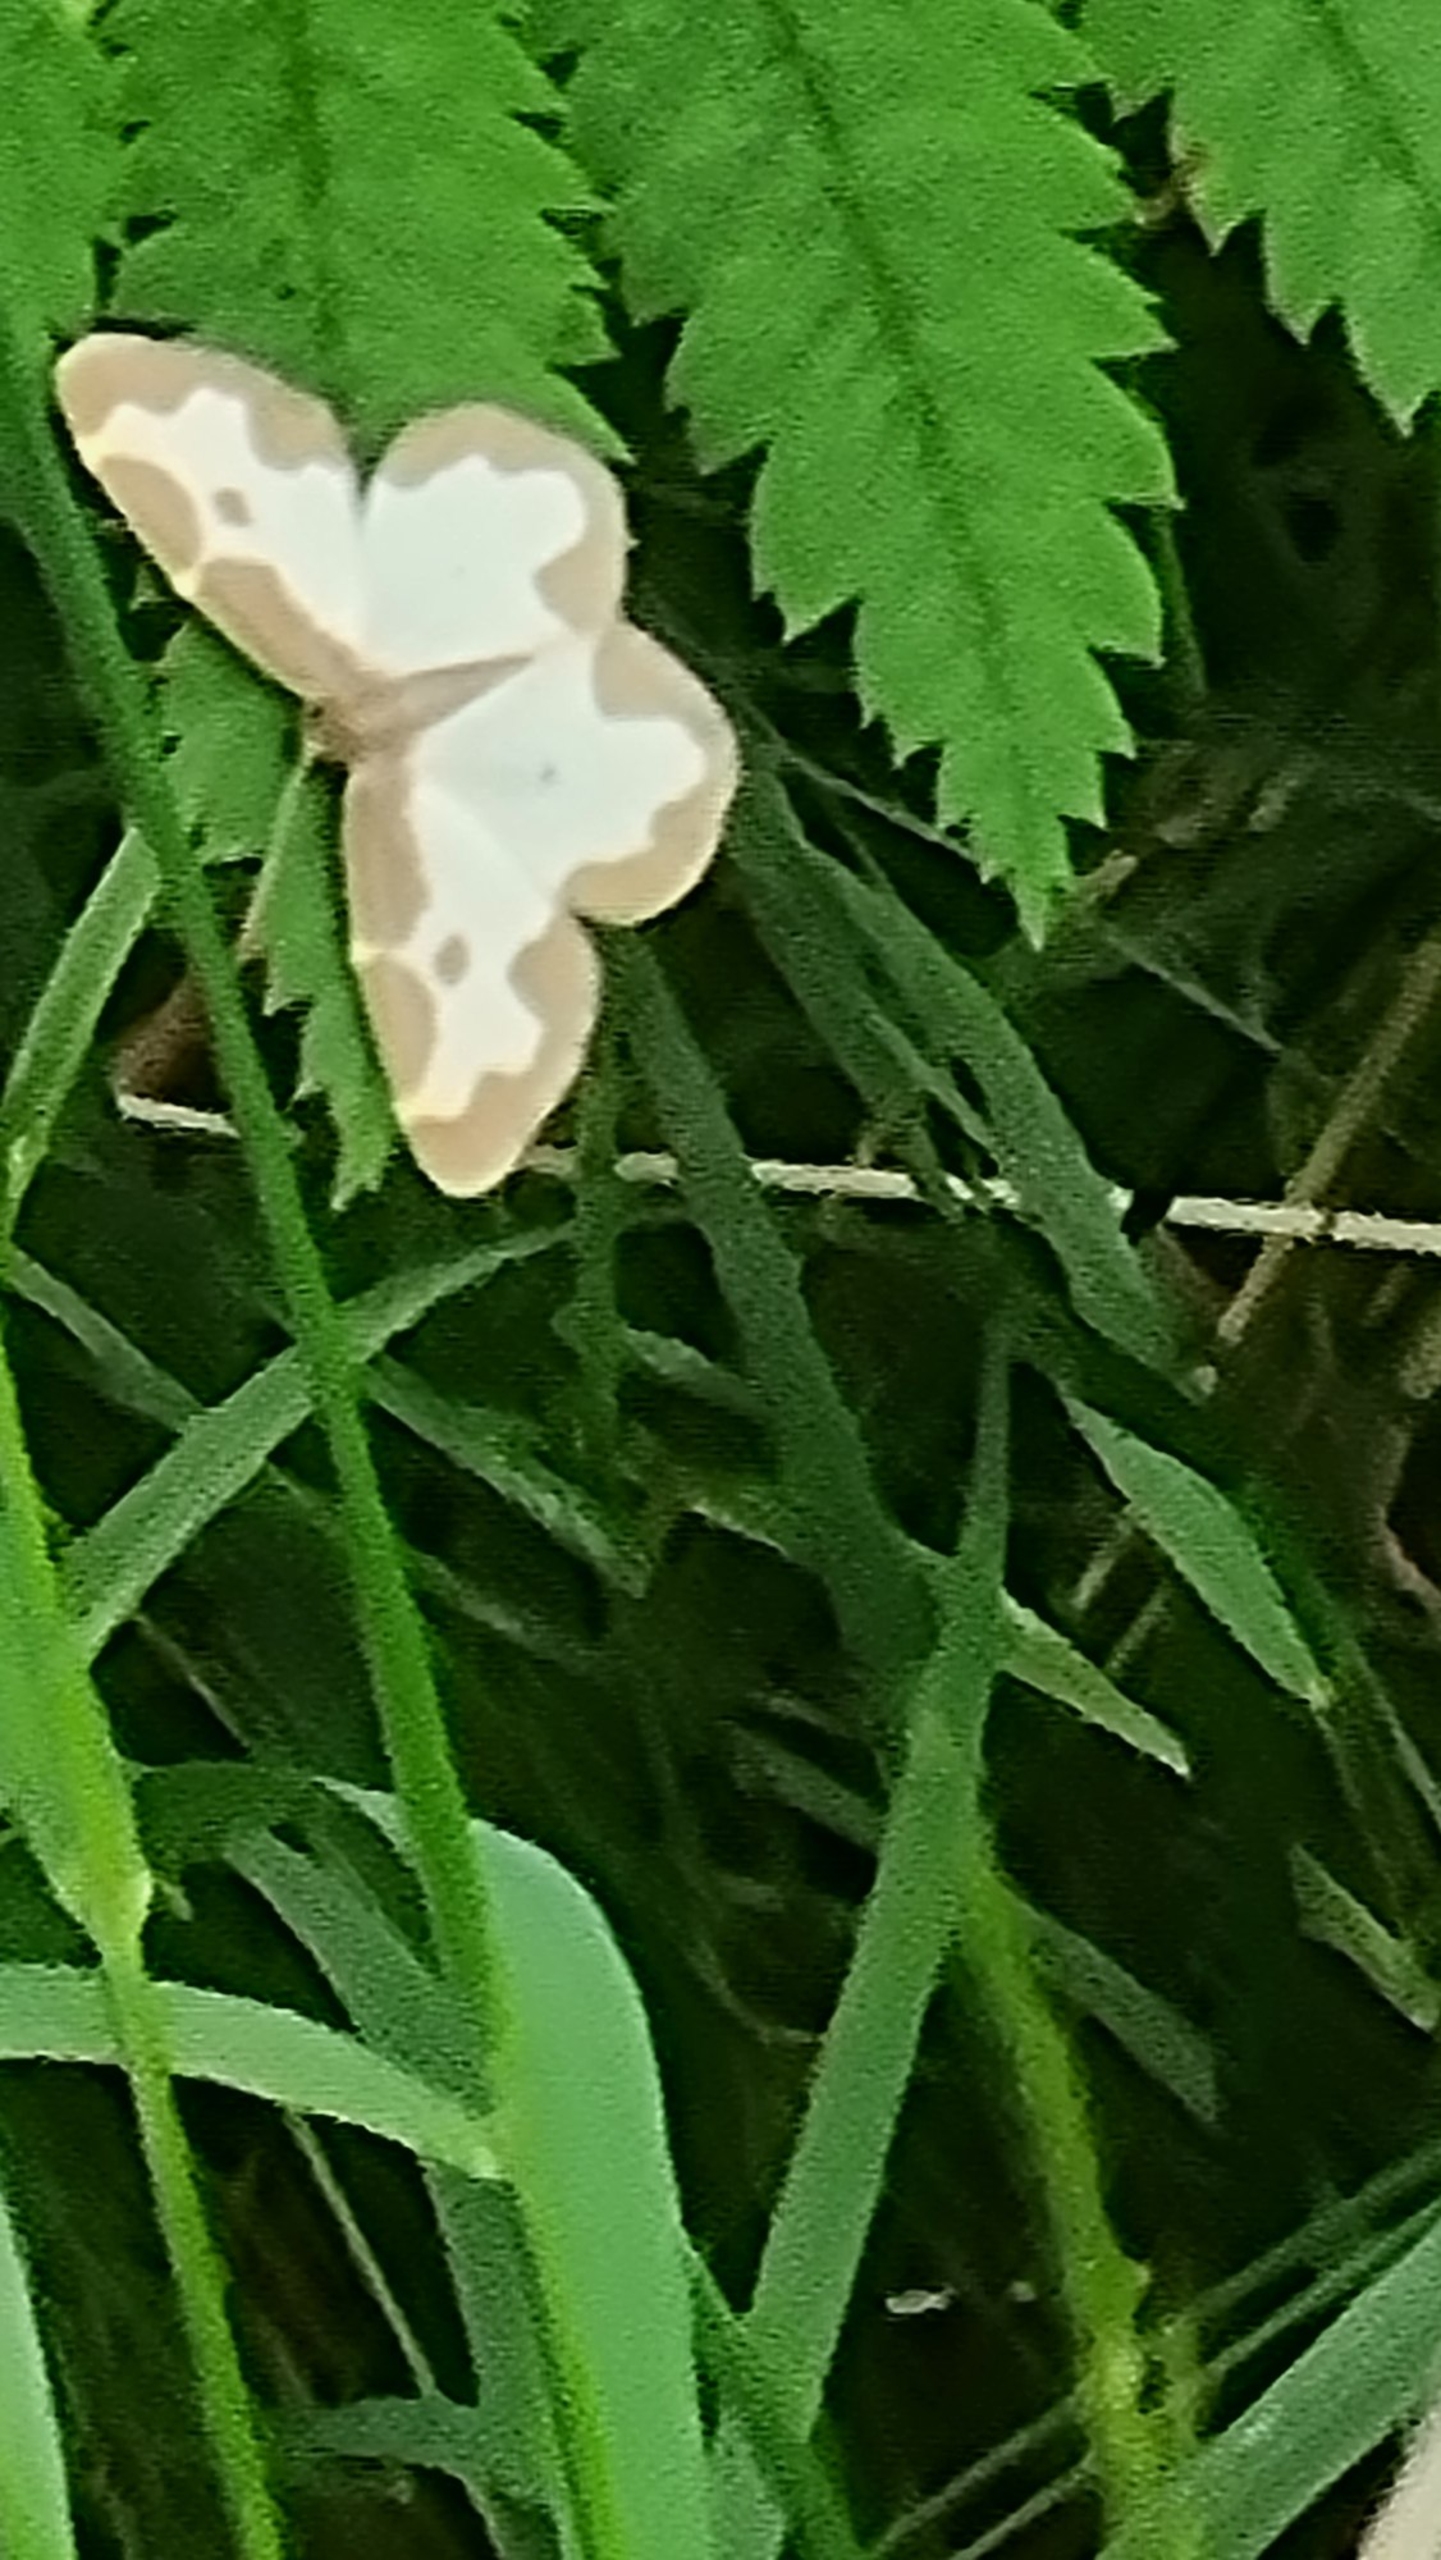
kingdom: Animalia
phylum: Arthropoda
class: Insecta
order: Lepidoptera
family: Geometridae
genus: Lomaspilis
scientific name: Lomaspilis marginata
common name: Sortrandet måler
